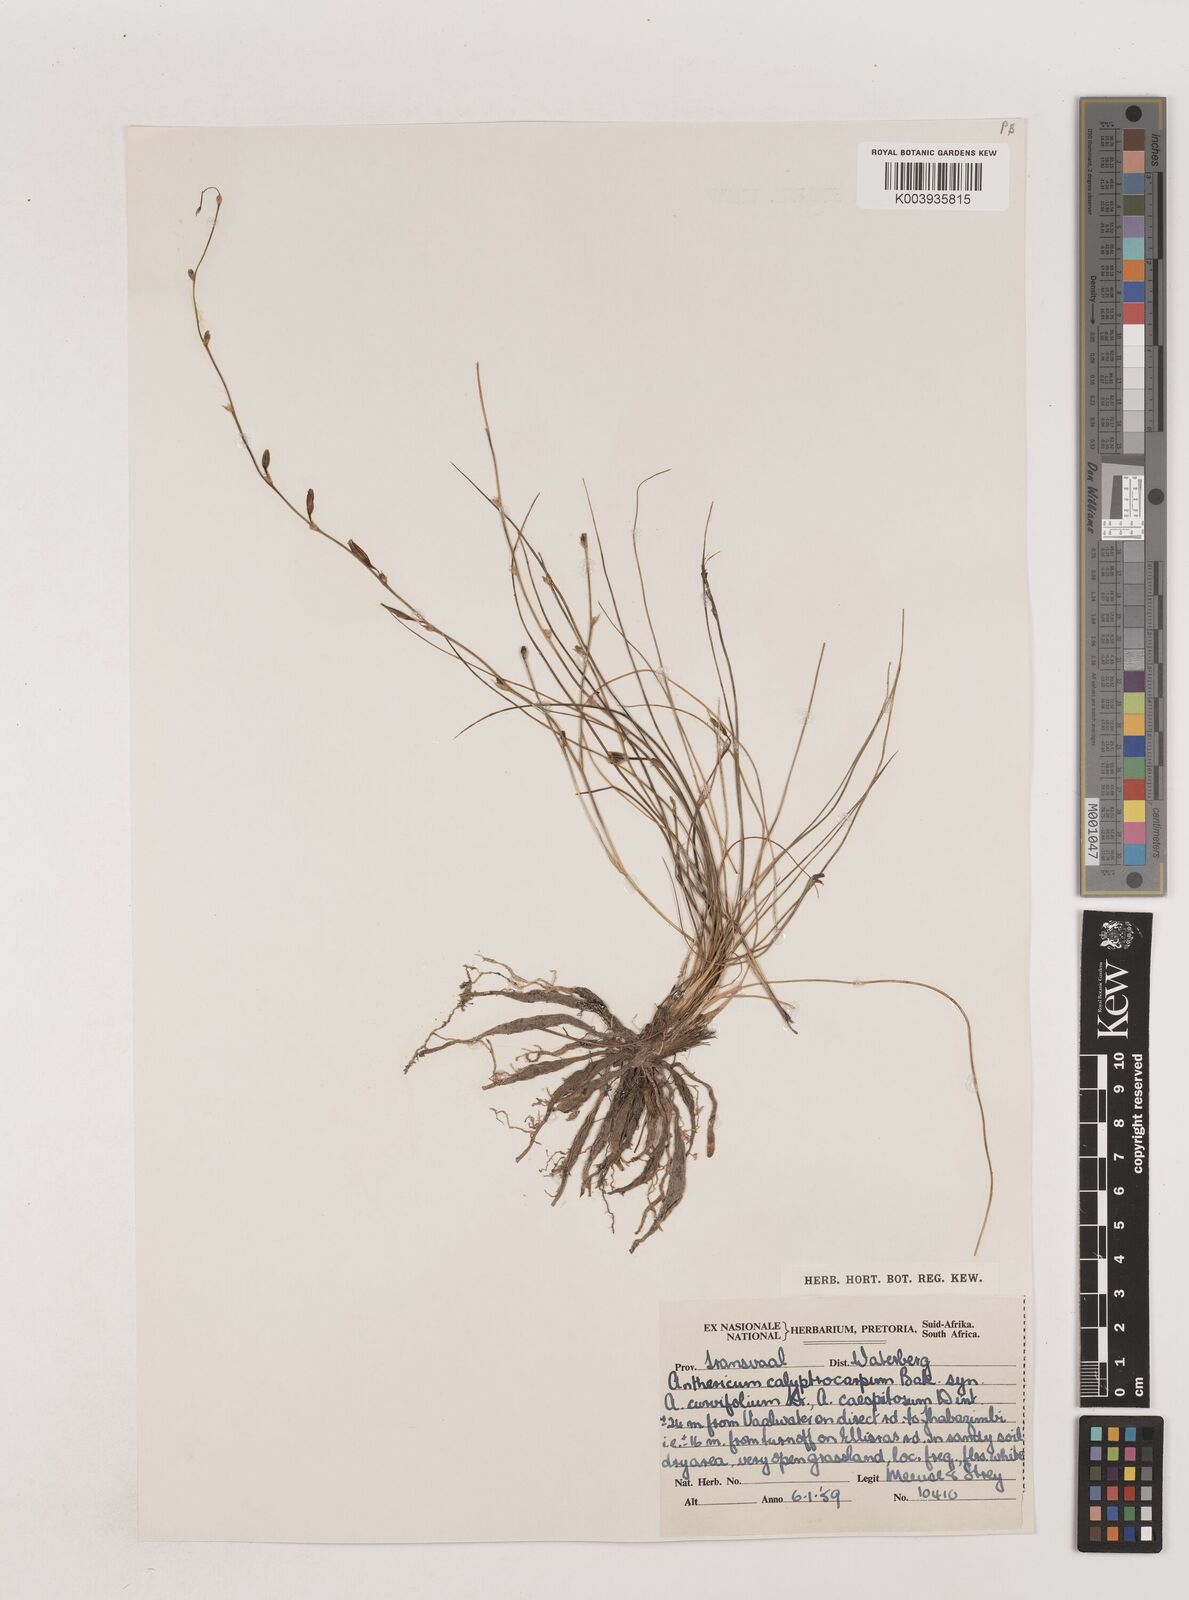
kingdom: Plantae
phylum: Tracheophyta
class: Liliopsida
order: Asparagales
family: Asparagaceae
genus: Chlorophytum
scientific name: Chlorophytum calyptrocarpum
